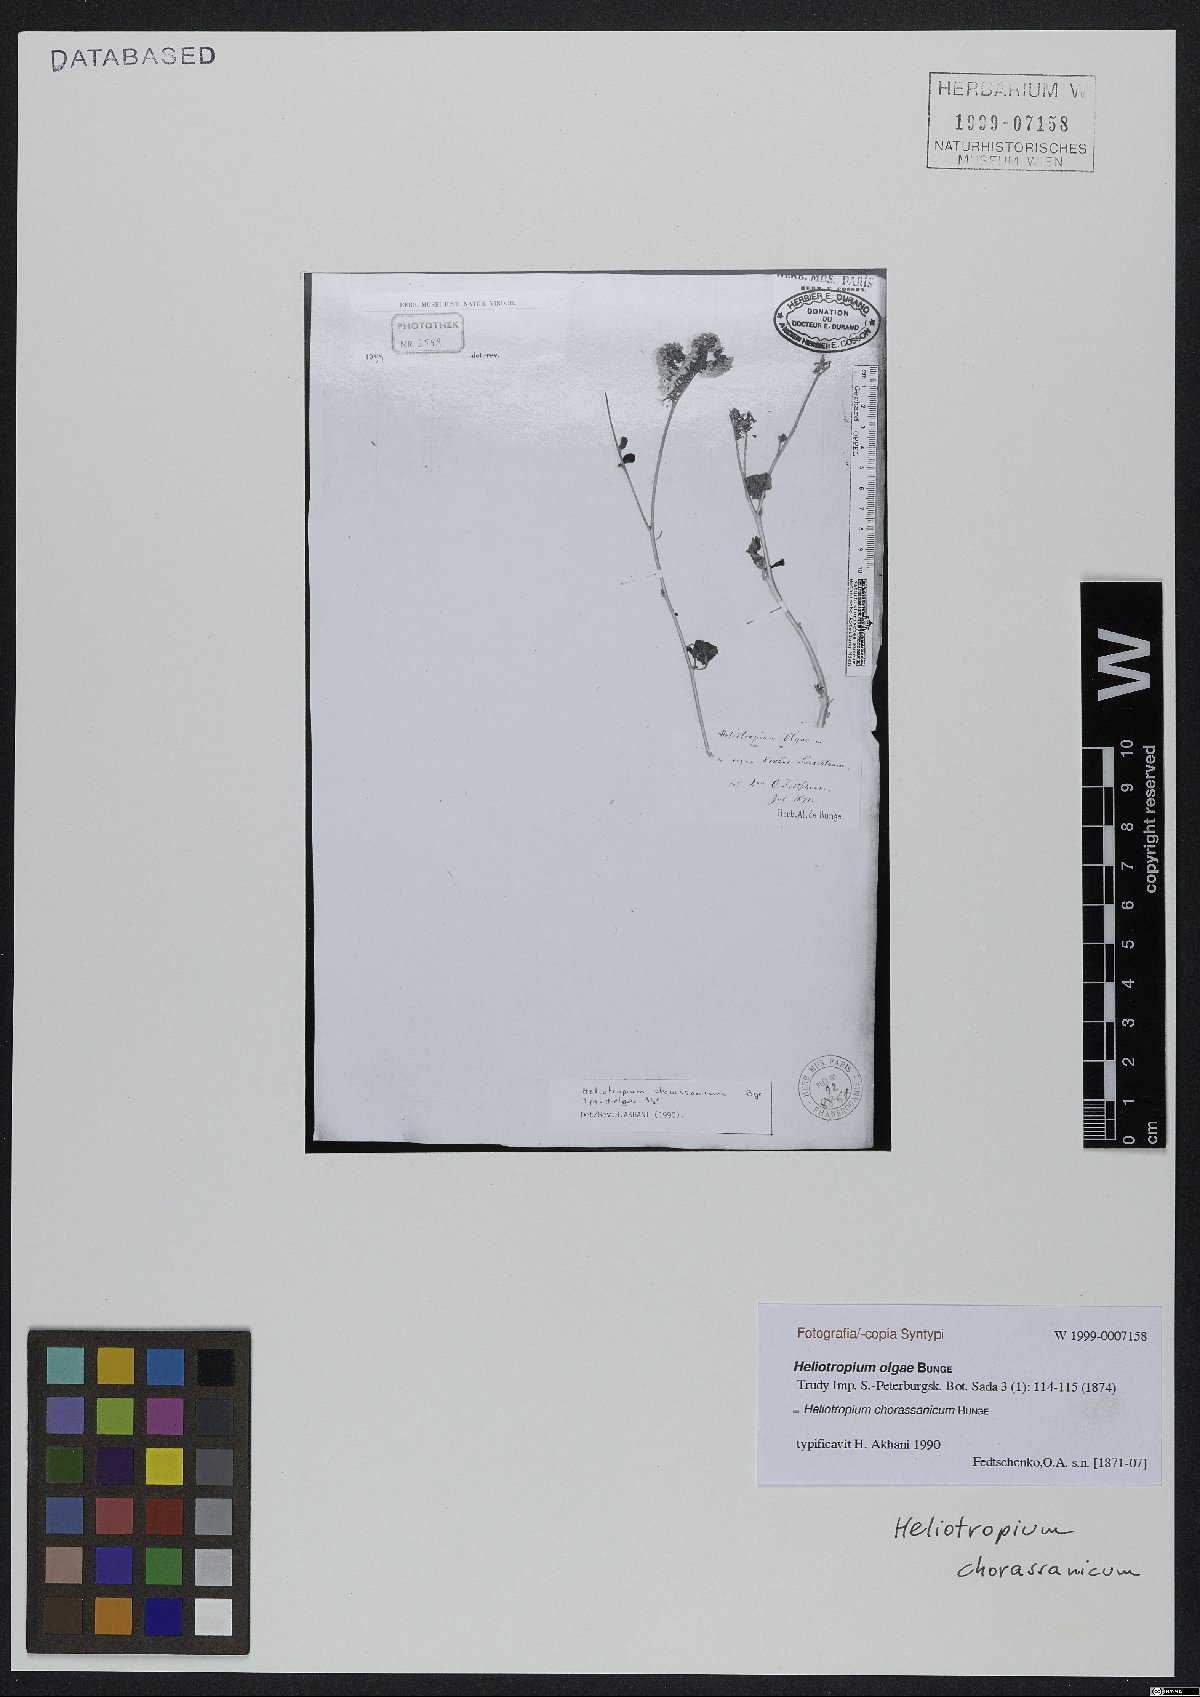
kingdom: Plantae
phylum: Tracheophyta
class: Magnoliopsida
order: Boraginales
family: Heliotropiaceae
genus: Heliotropium
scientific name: Heliotropium chorassanicum
